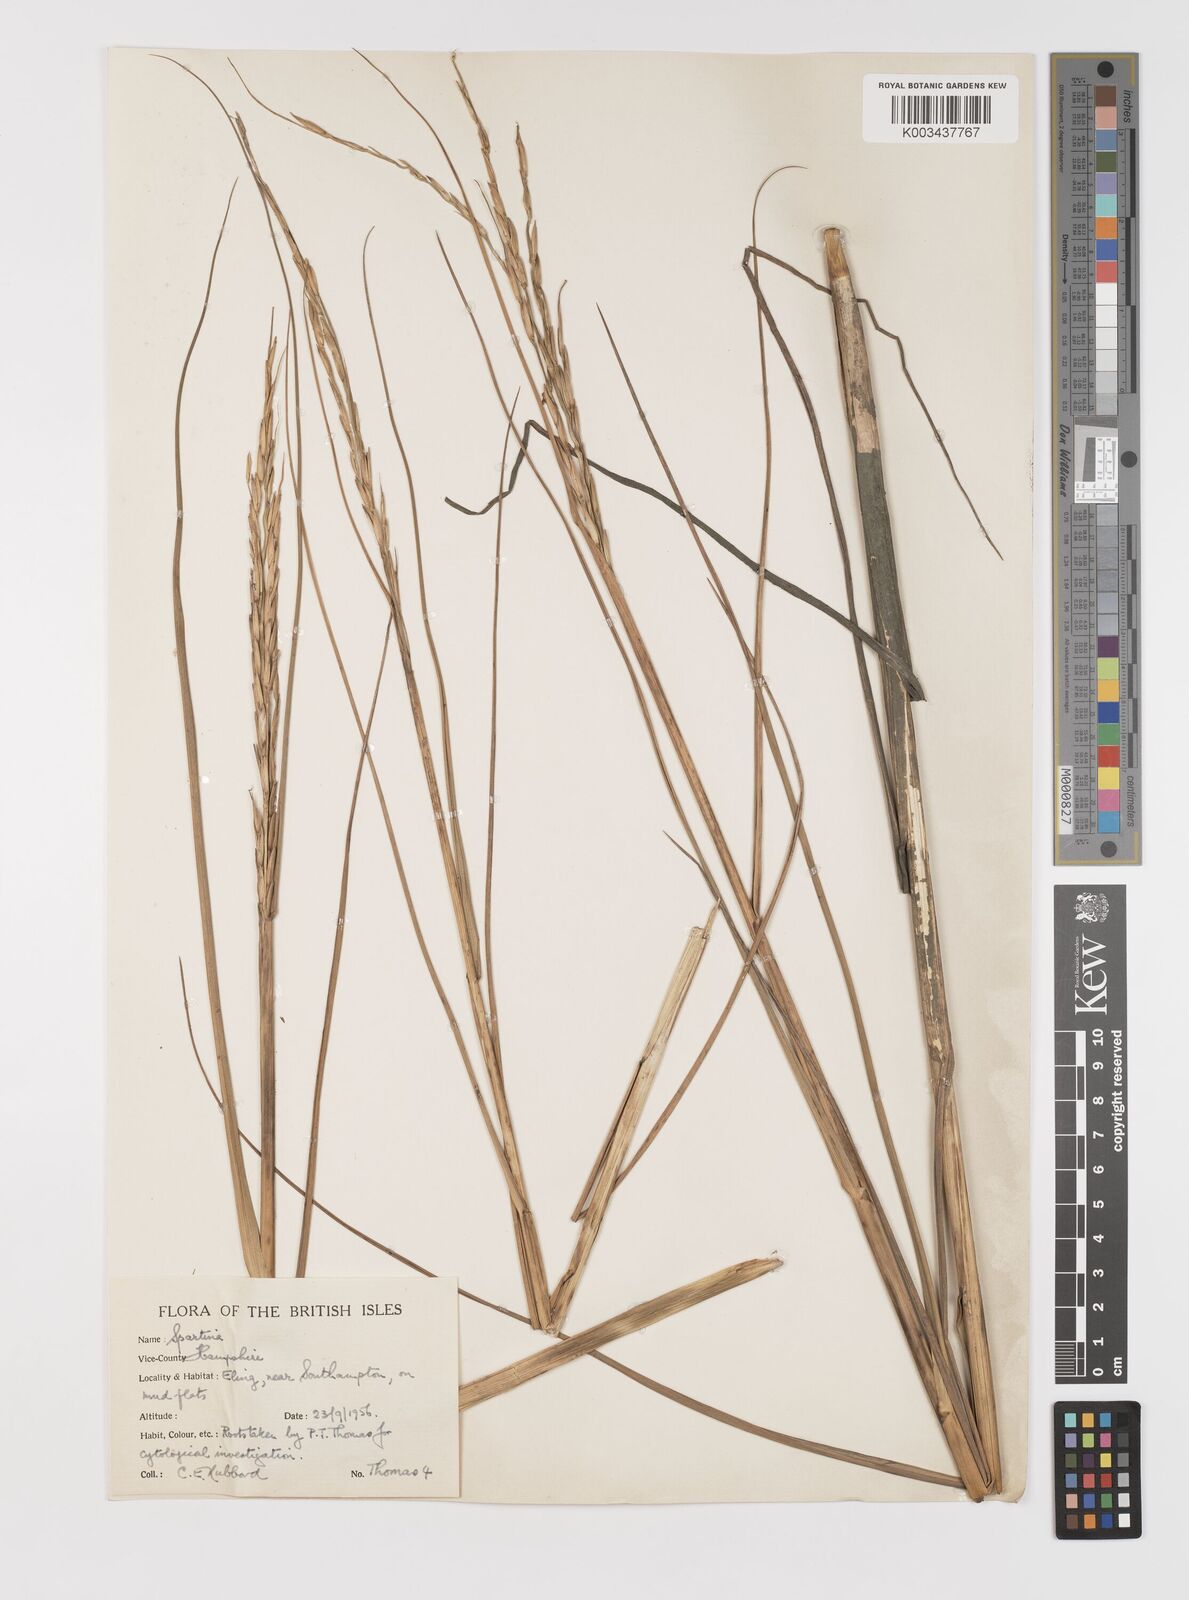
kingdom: Plantae
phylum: Tracheophyta
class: Liliopsida
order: Poales
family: Poaceae
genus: Sporobolus
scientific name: Sporobolus alterniflorus
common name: Atlantic cordgrass
